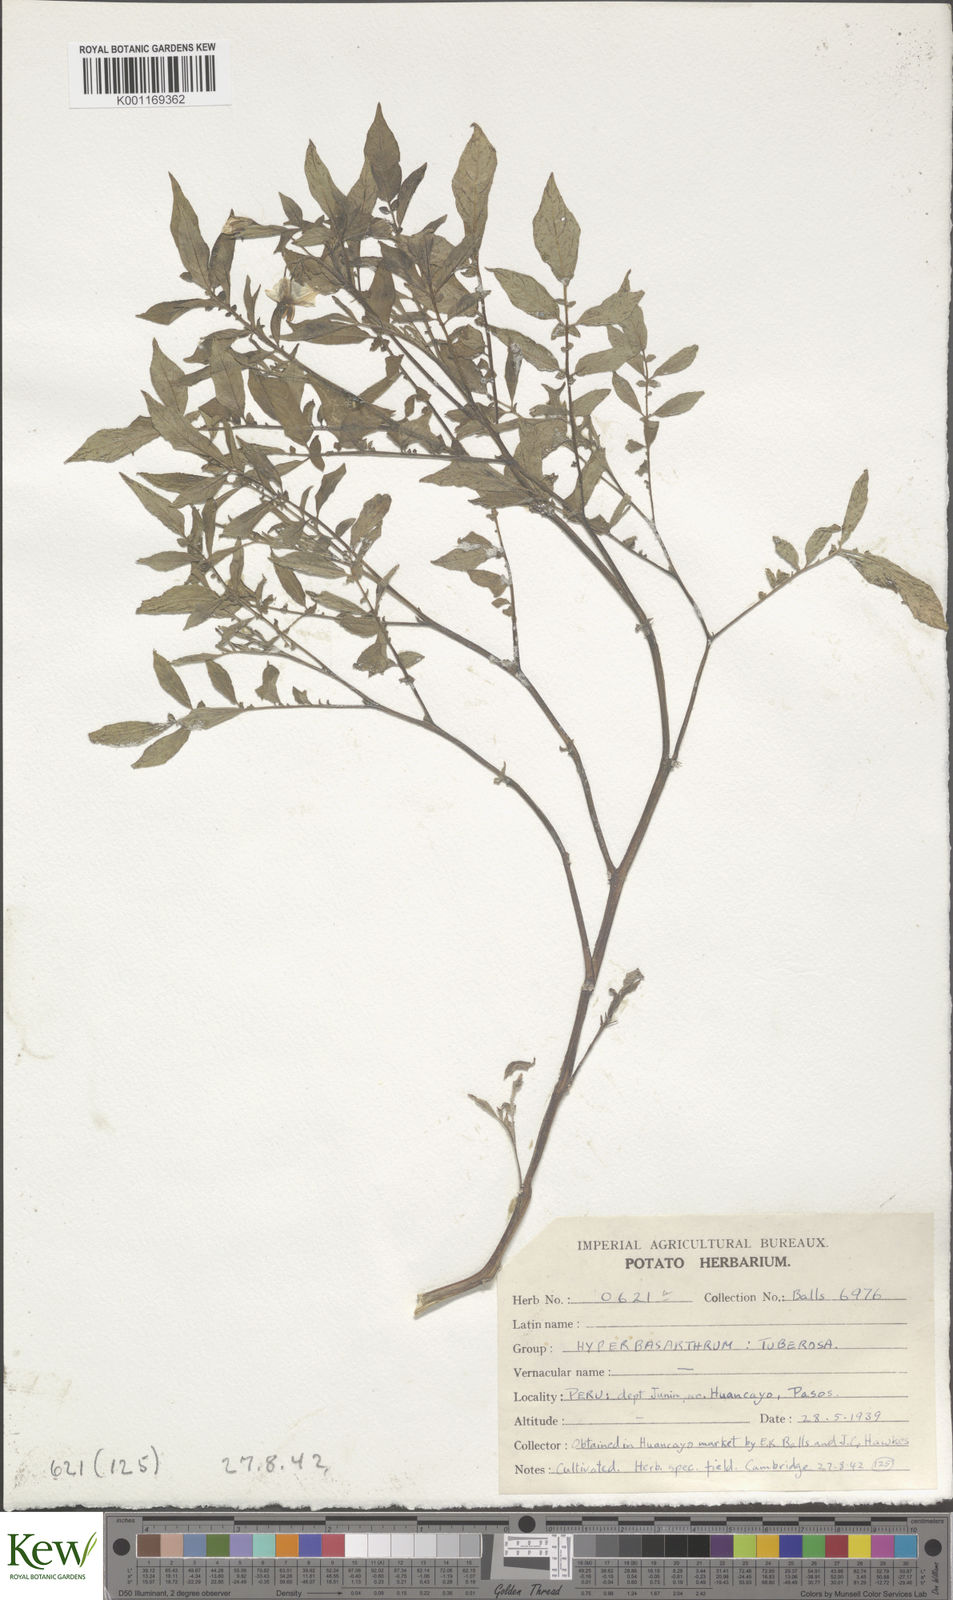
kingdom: Plantae
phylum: Tracheophyta
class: Magnoliopsida
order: Solanales
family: Solanaceae
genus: Solanum
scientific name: Solanum chaucha
